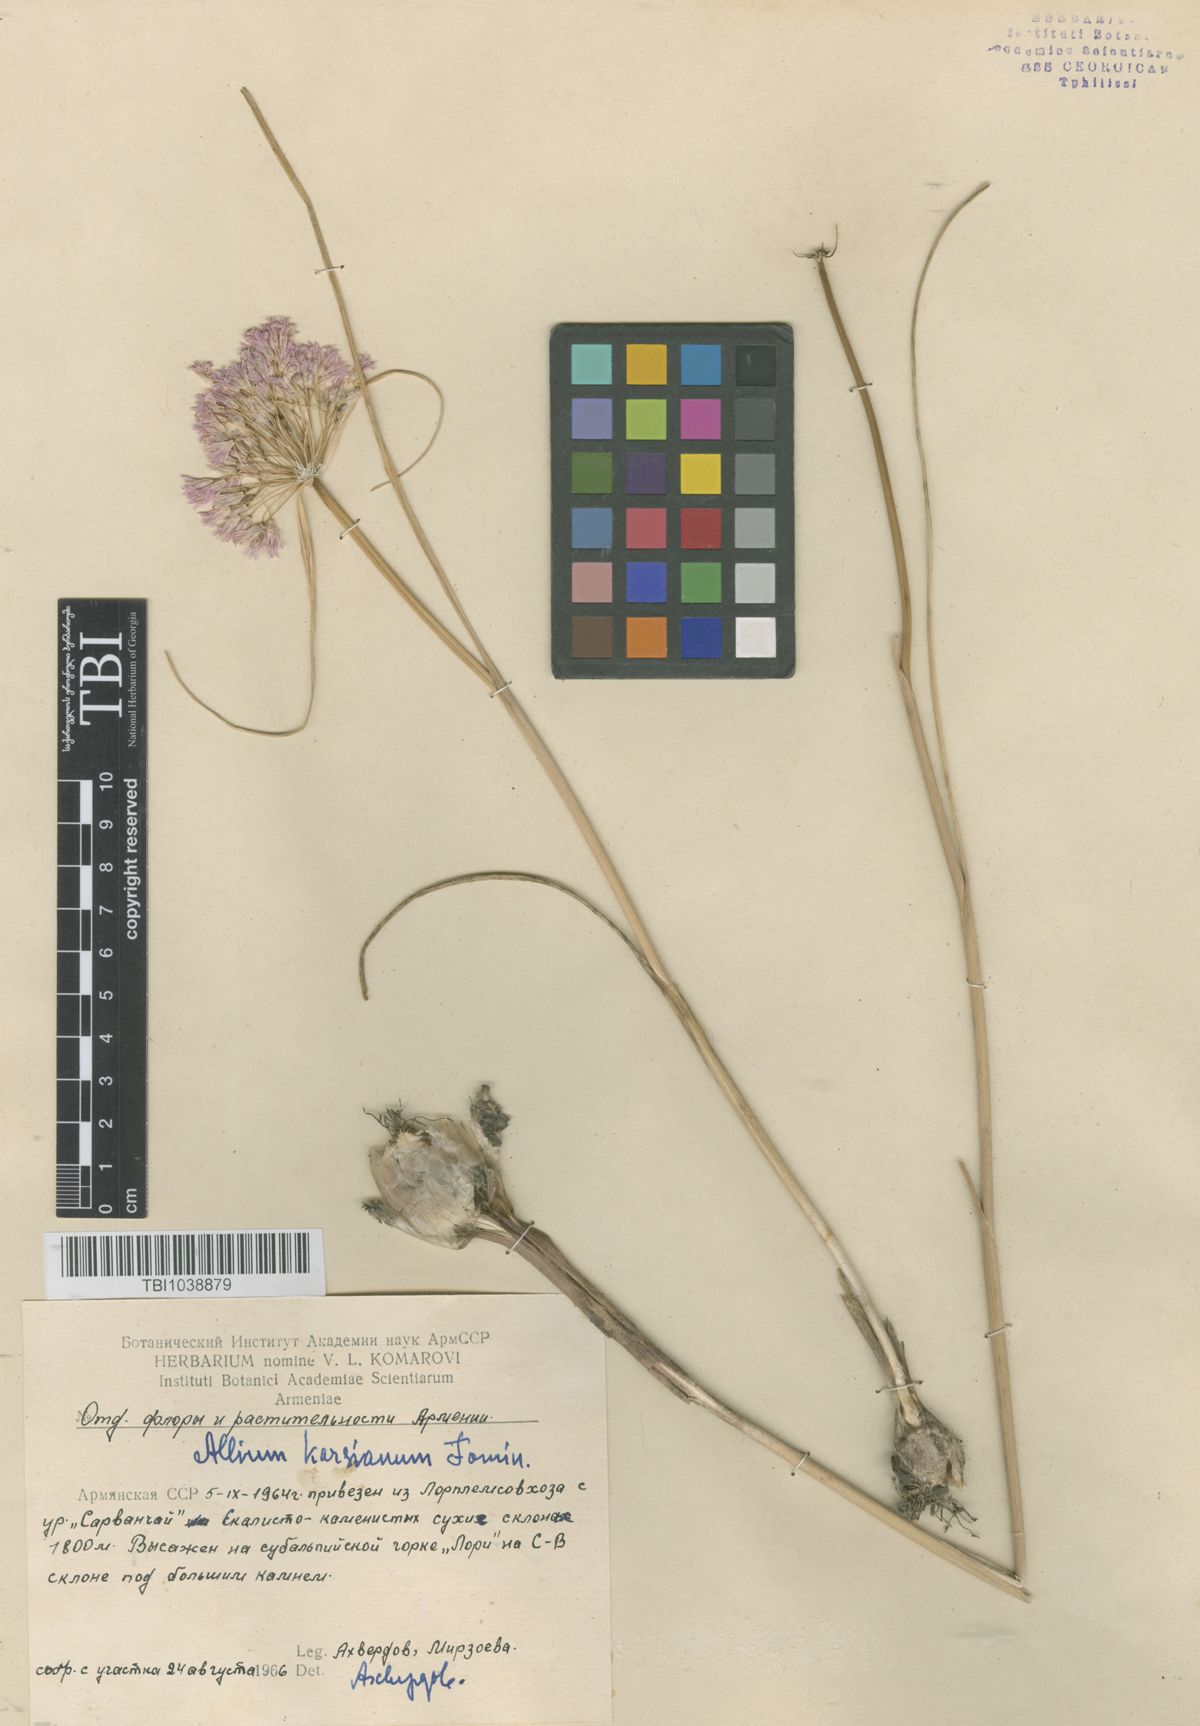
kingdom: Plantae
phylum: Tracheophyta
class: Liliopsida
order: Asparagales
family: Amaryllidaceae
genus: Allium
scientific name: Allium paniculatum
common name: Pale garlic
